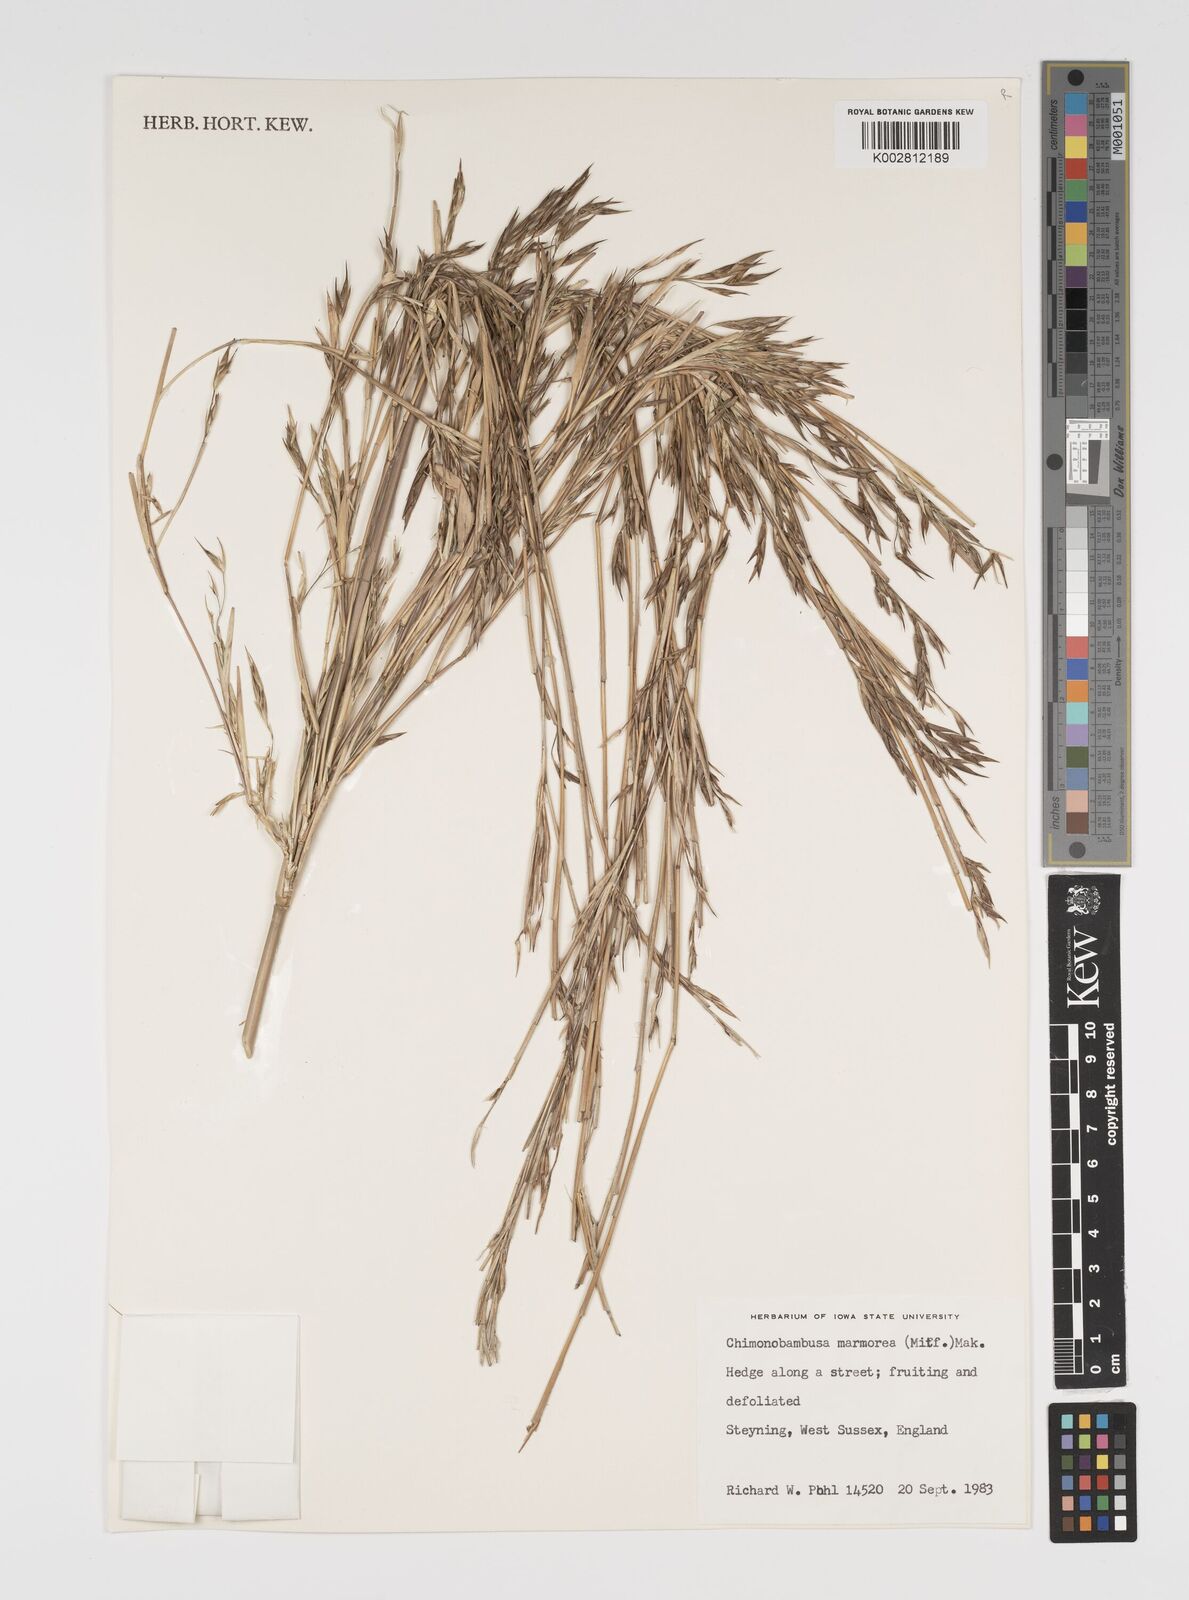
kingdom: Plantae
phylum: Tracheophyta
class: Liliopsida
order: Poales
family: Poaceae
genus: Yushania
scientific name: Yushania anceps
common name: Indian fountain-bamboo
